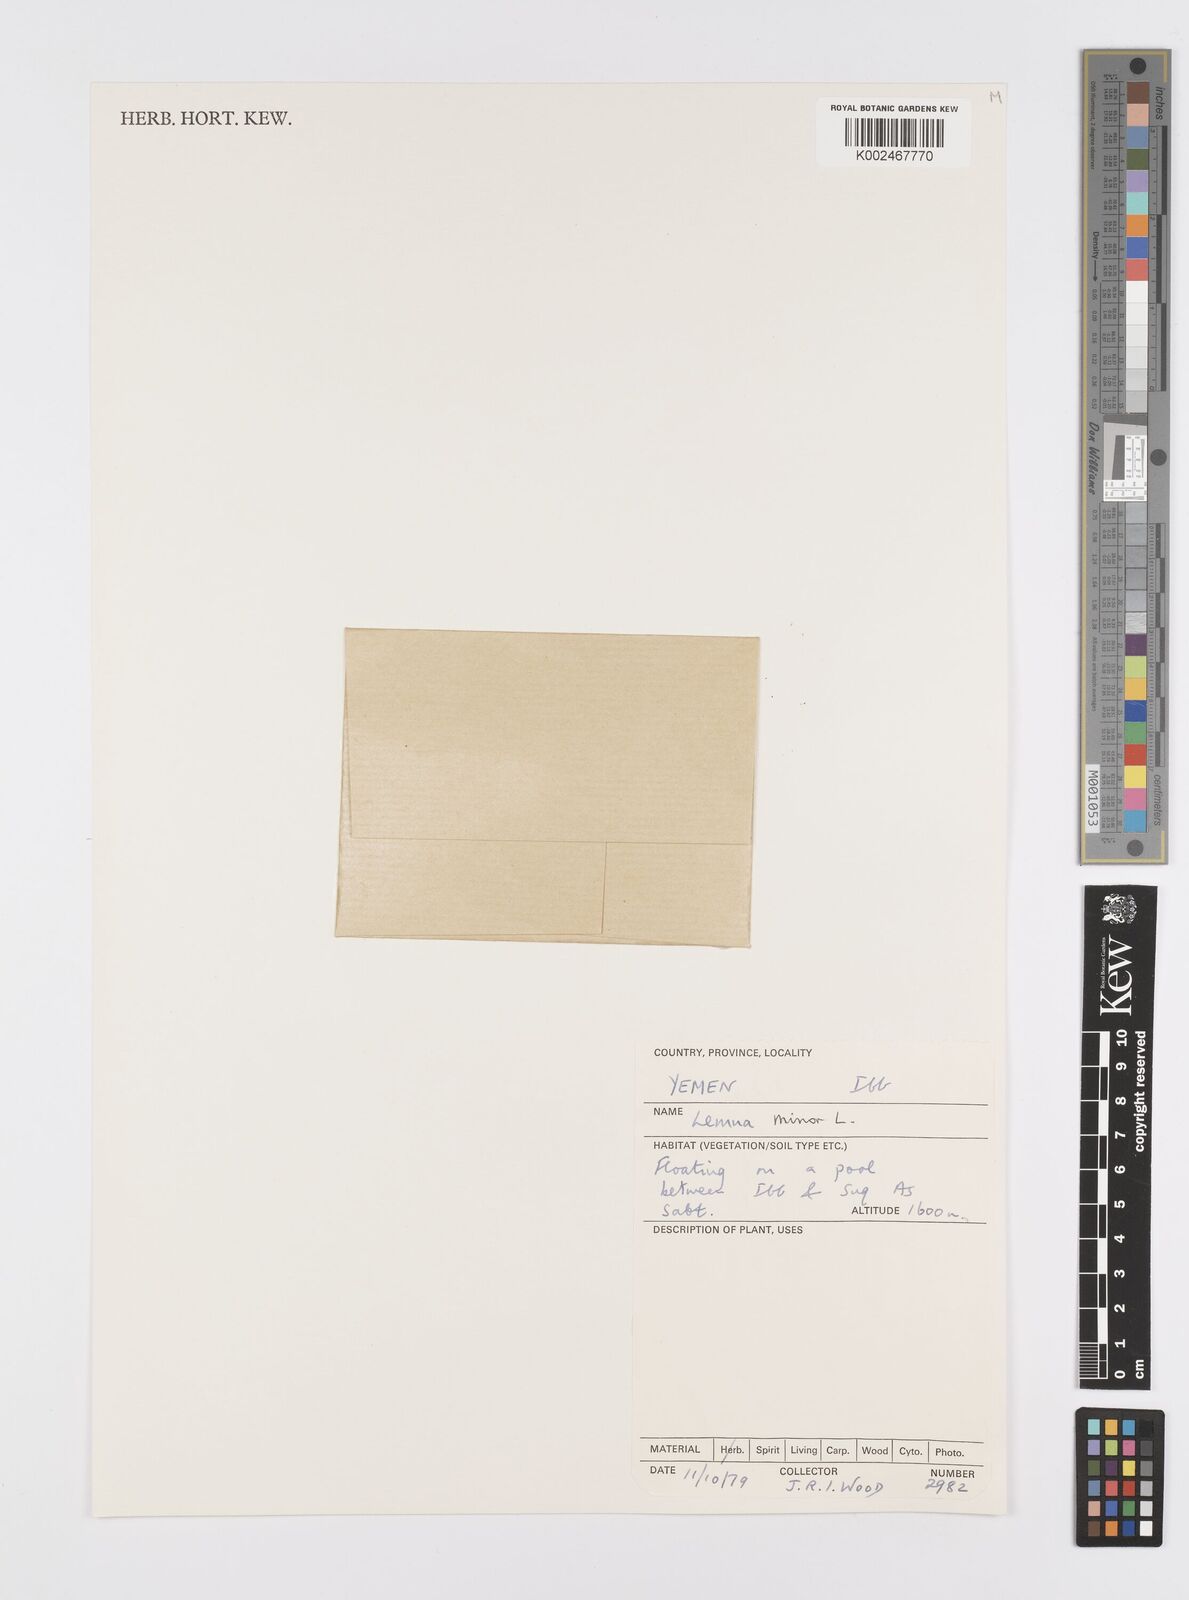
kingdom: Plantae
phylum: Tracheophyta
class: Liliopsida
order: Alismatales
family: Araceae
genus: Lemna
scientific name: Lemna minor
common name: Common duckweed
